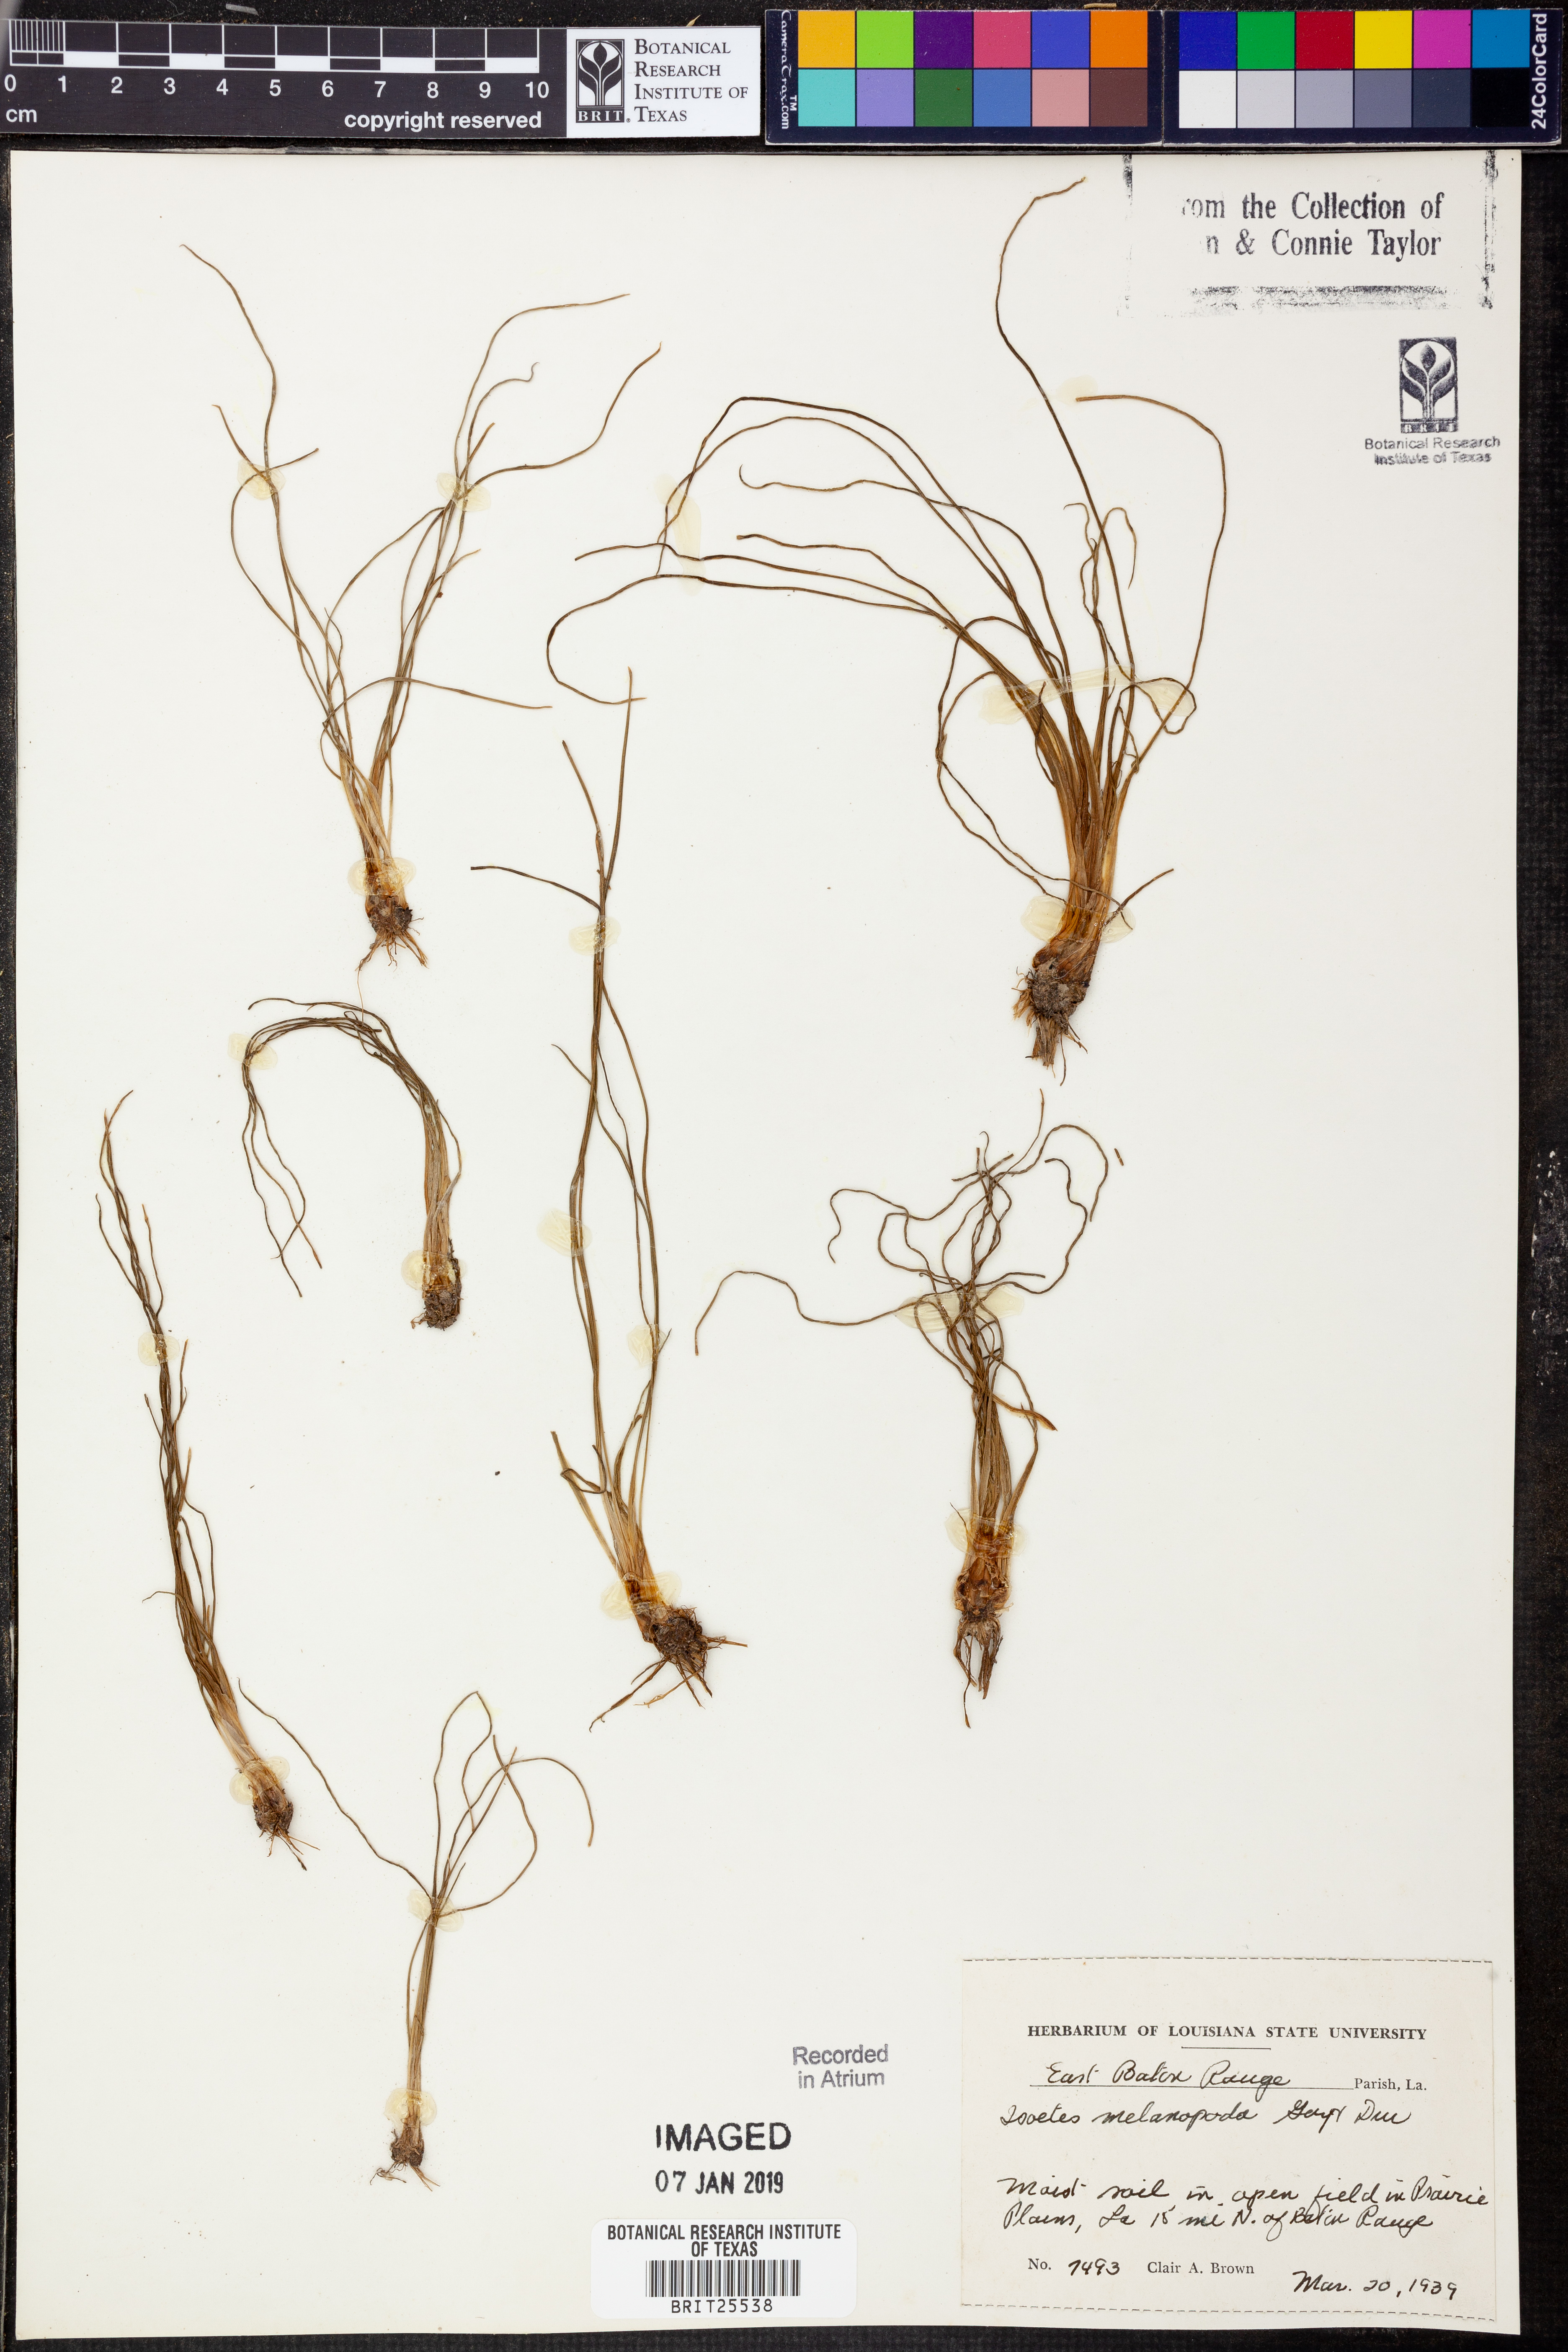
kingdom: Plantae
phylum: Tracheophyta
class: Lycopodiopsida
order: Isoetales
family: Isoetaceae
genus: Isoetes
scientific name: Isoetes melanopoda
